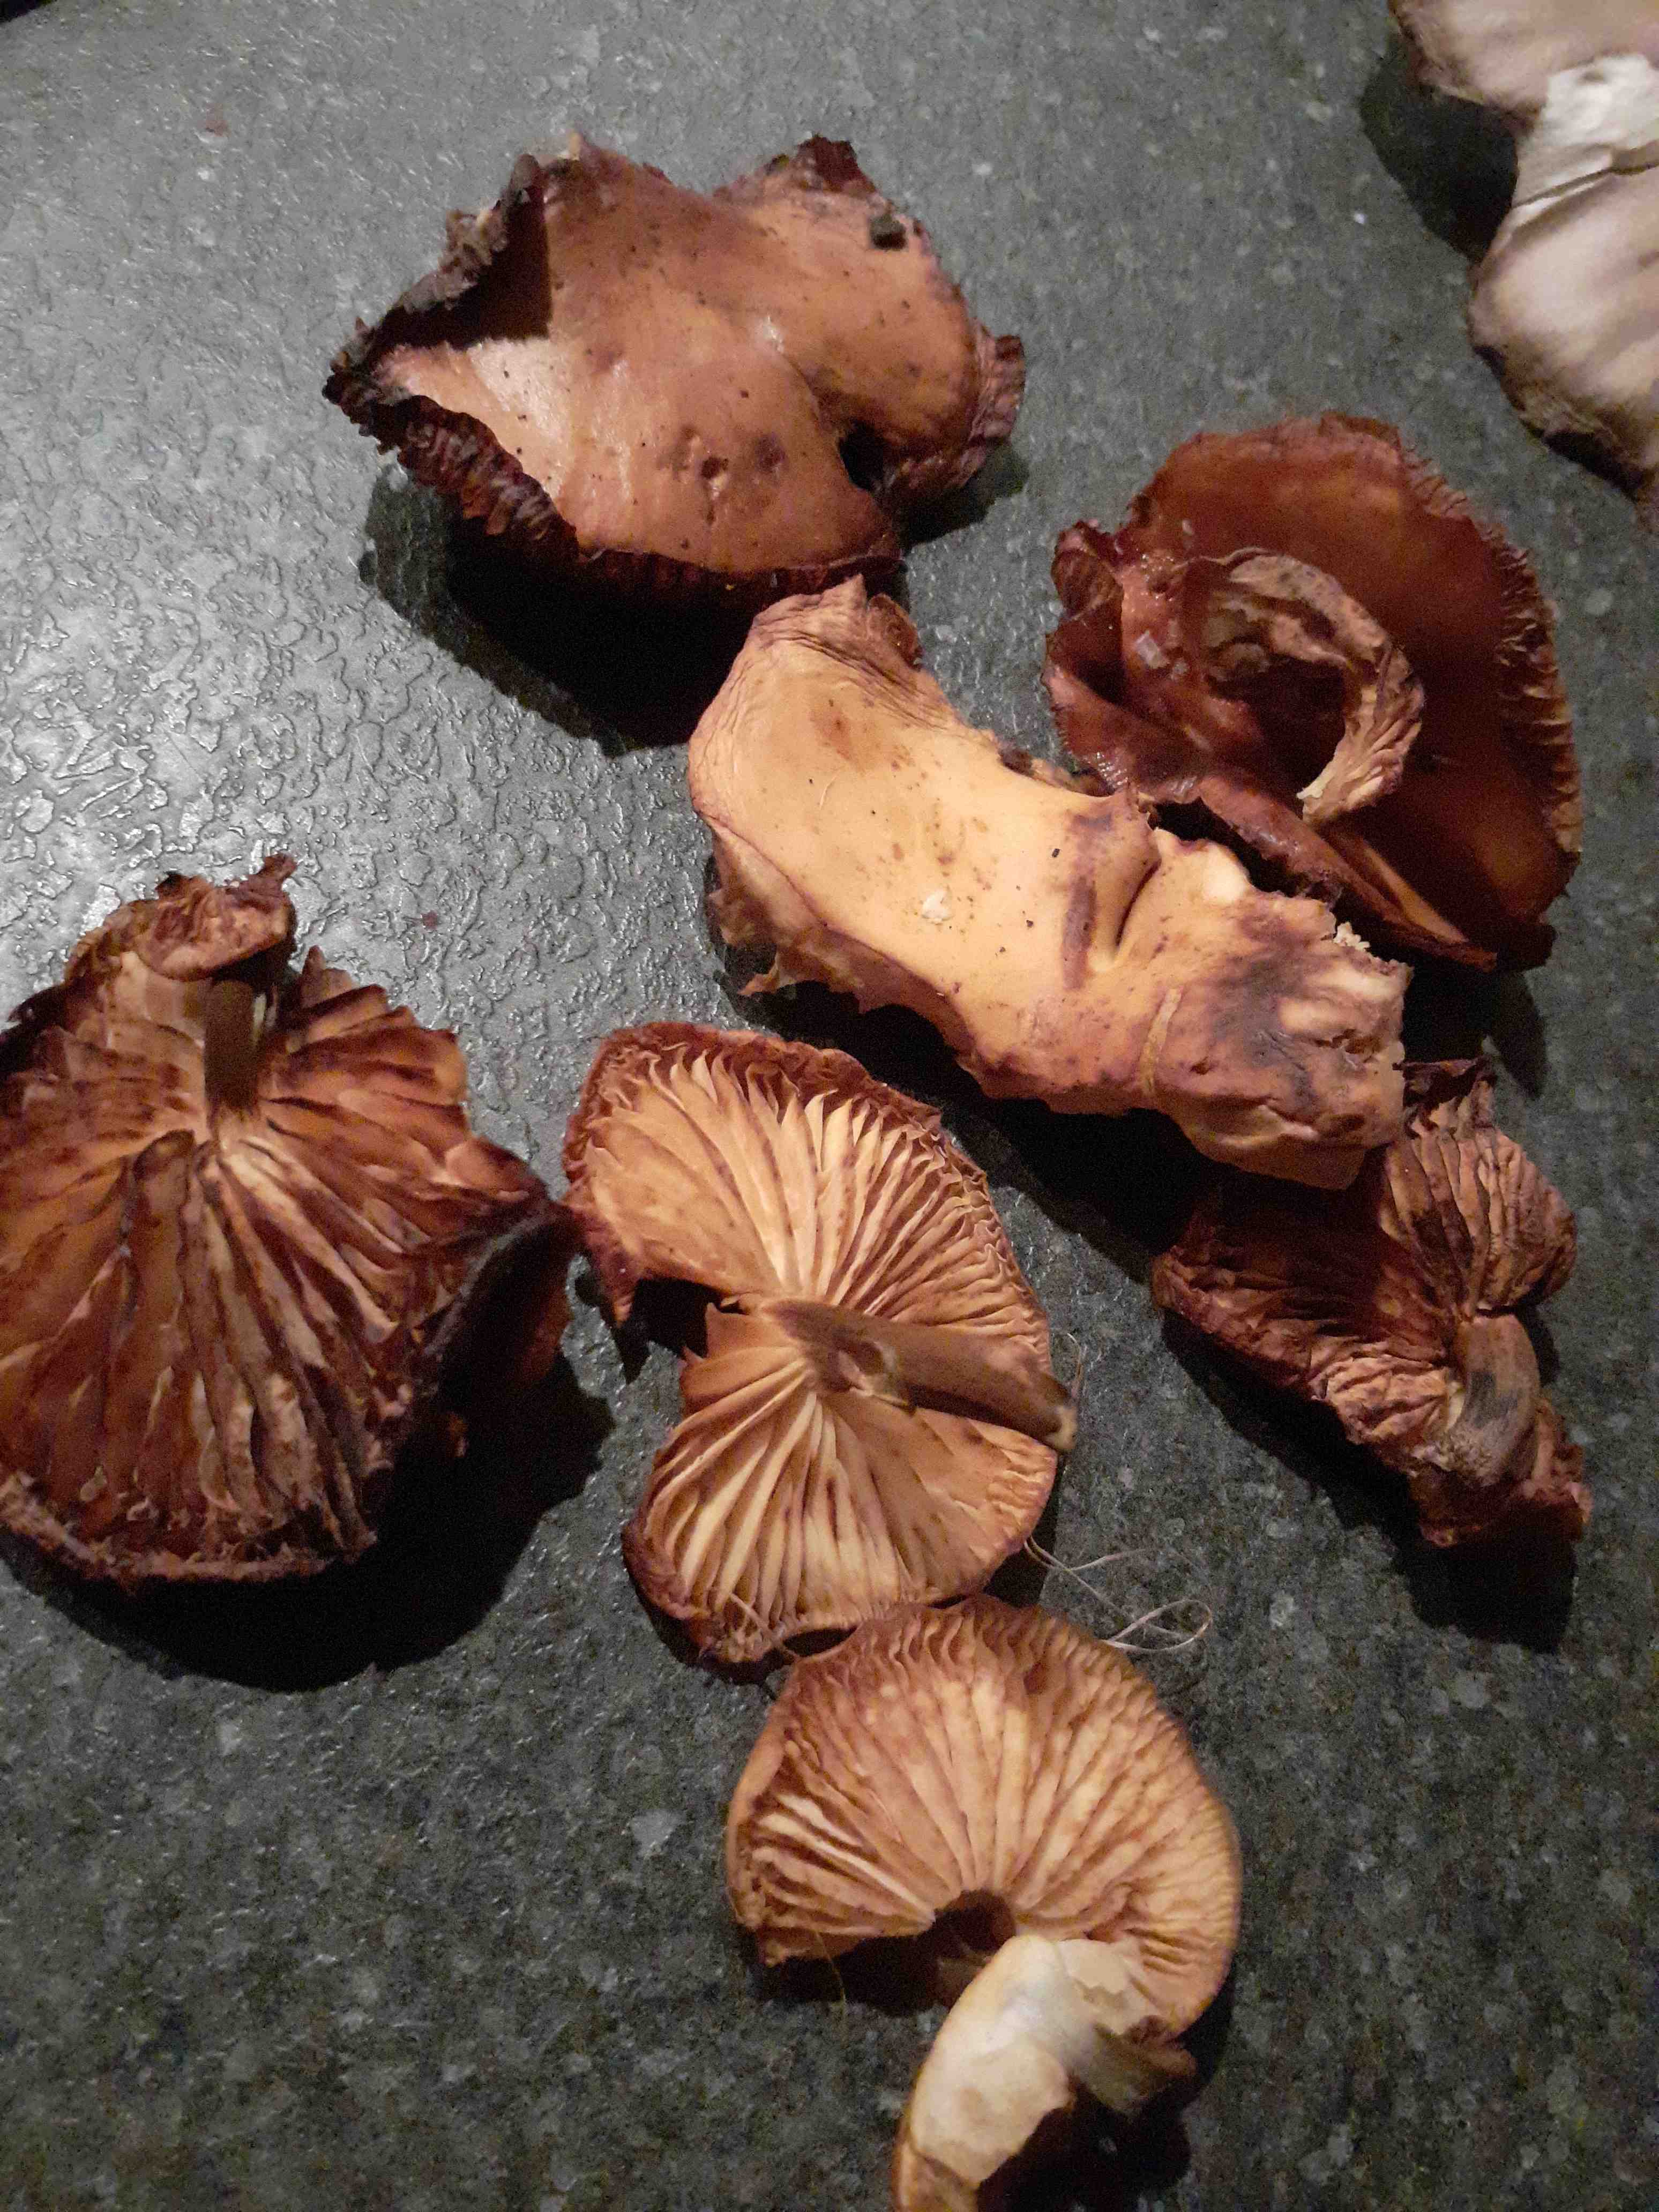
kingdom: Fungi
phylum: Basidiomycota
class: Agaricomycetes
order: Agaricales
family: Physalacriaceae
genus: Flammulina
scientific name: Flammulina
